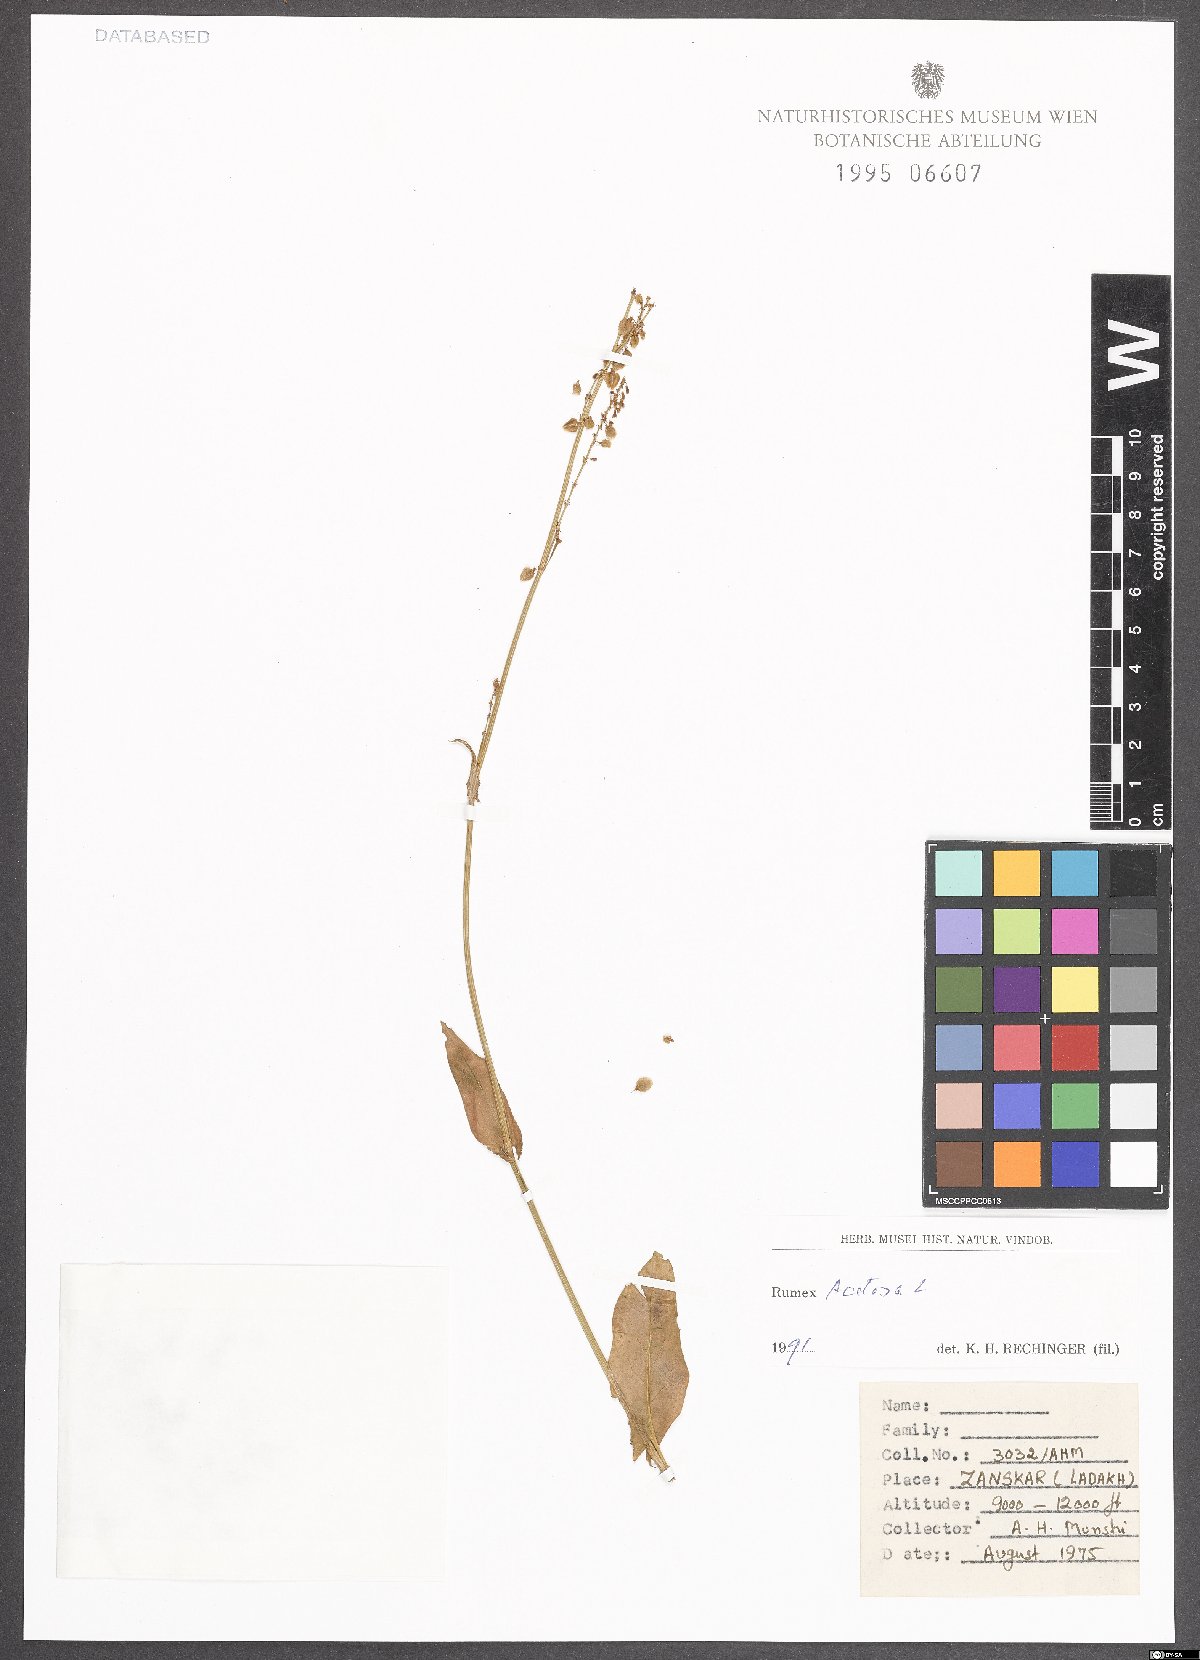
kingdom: Plantae
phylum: Tracheophyta
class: Magnoliopsida
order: Caryophyllales
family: Polygonaceae
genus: Rumex
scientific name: Rumex acetosa
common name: Garden sorrel
